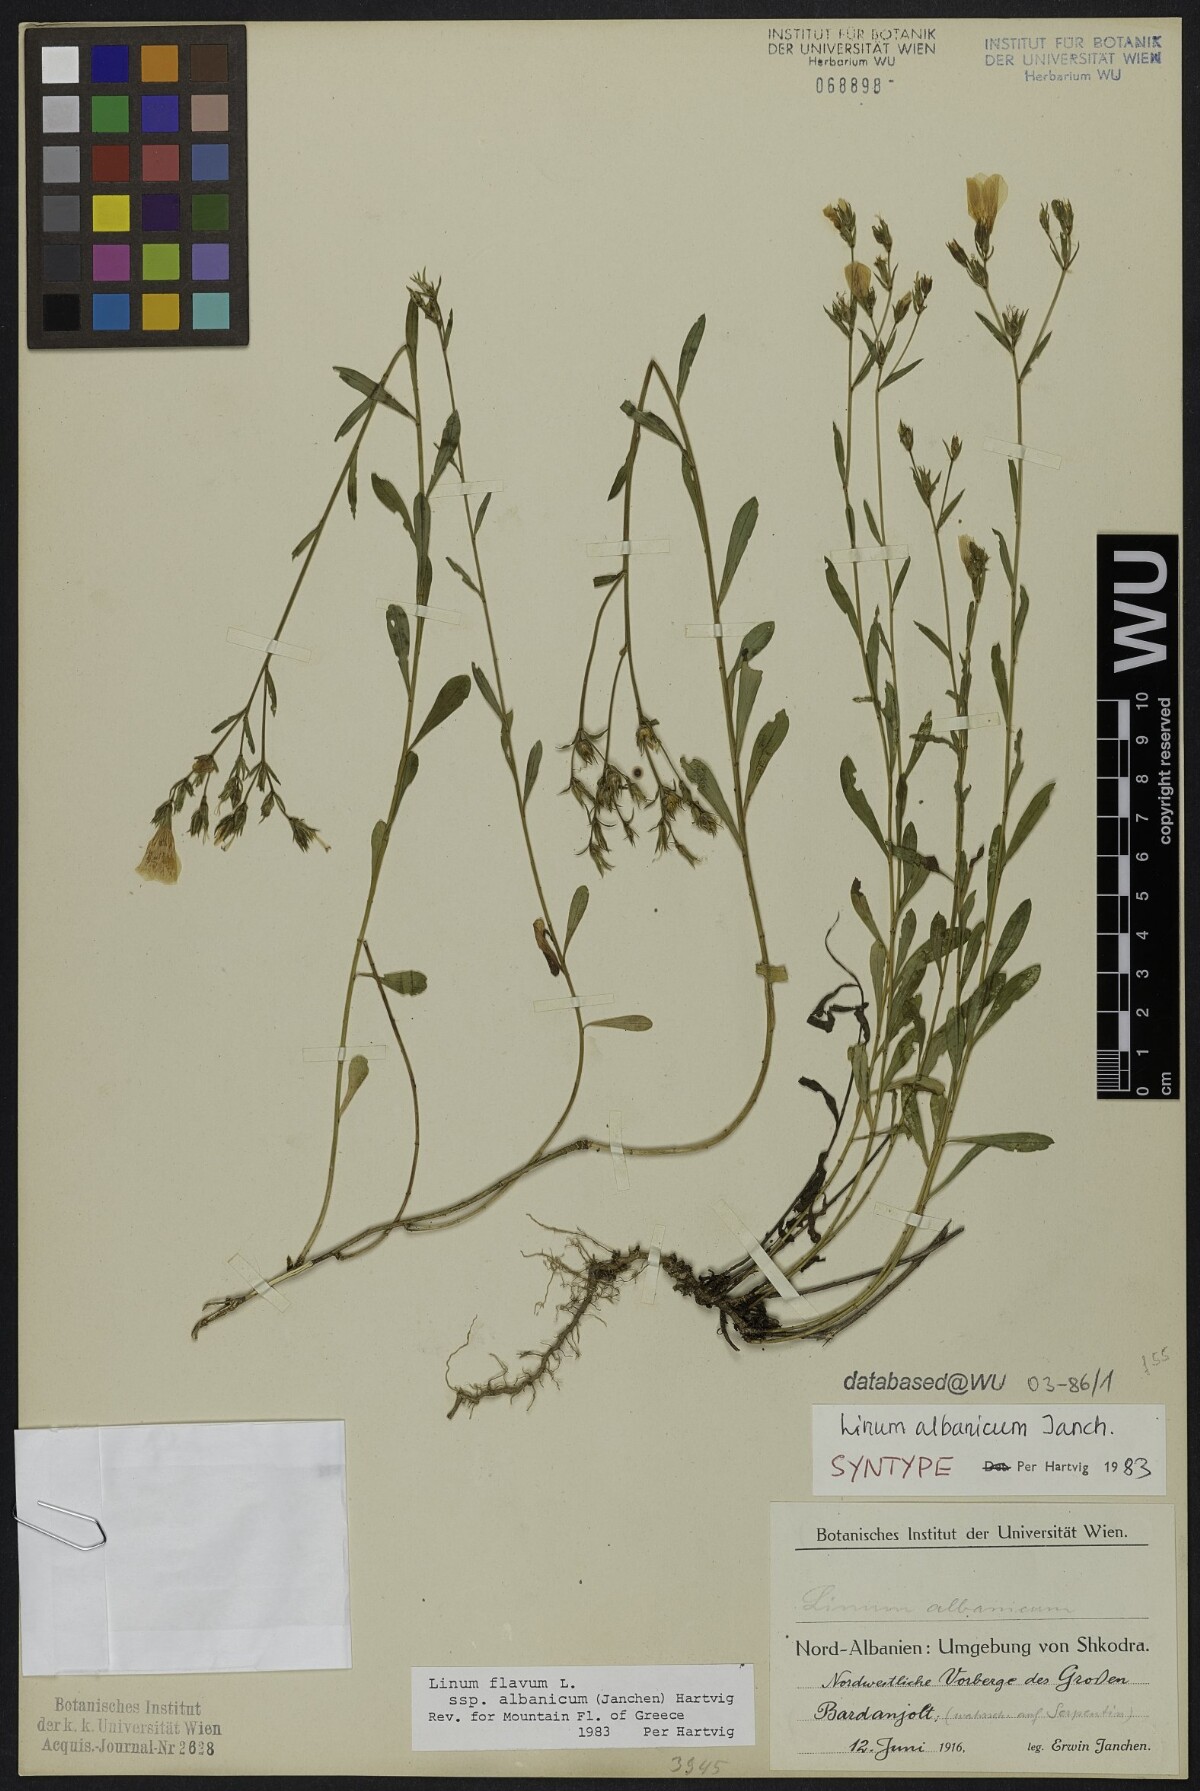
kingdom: Plantae
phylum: Tracheophyta
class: Magnoliopsida
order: Malpighiales
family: Linaceae
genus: Linum
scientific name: Linum flavum
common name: Yellow flax
